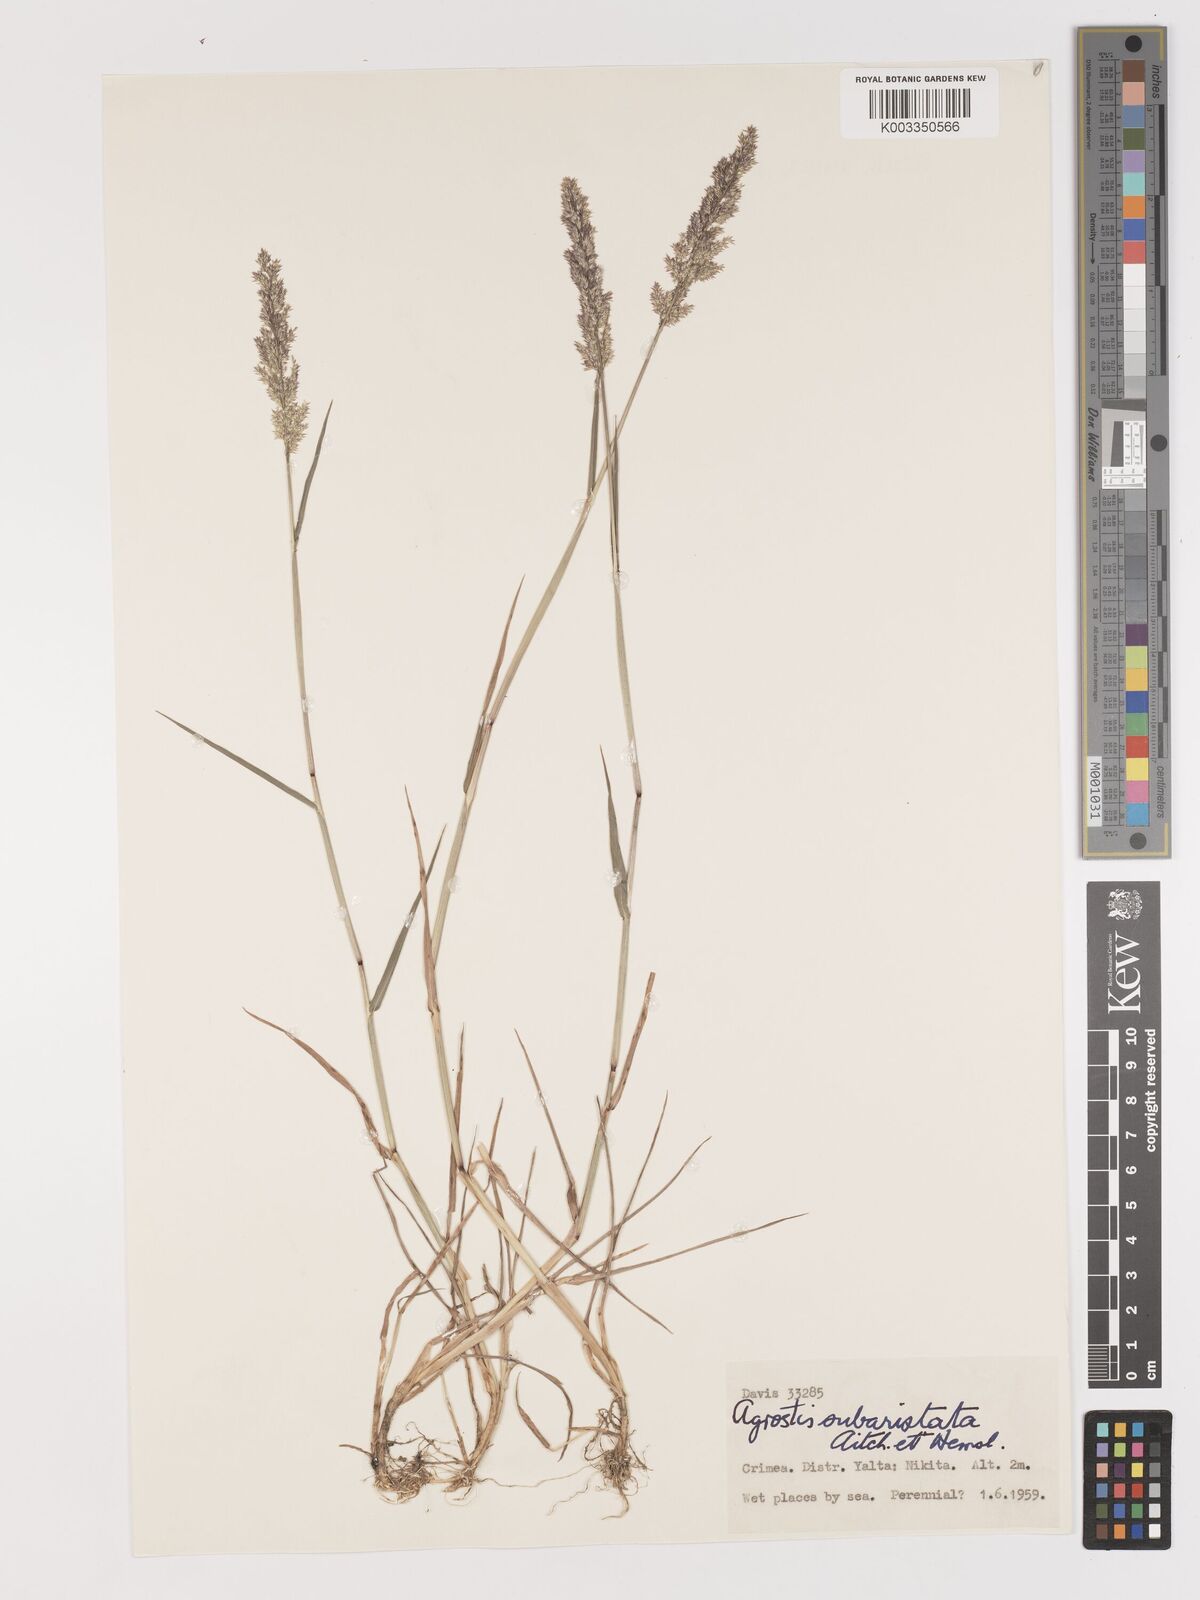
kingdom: Plantae
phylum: Tracheophyta
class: Liliopsida
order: Poales
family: Poaceae
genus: Agropogon
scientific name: Agropogon lutosus
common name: Coast agropogon
